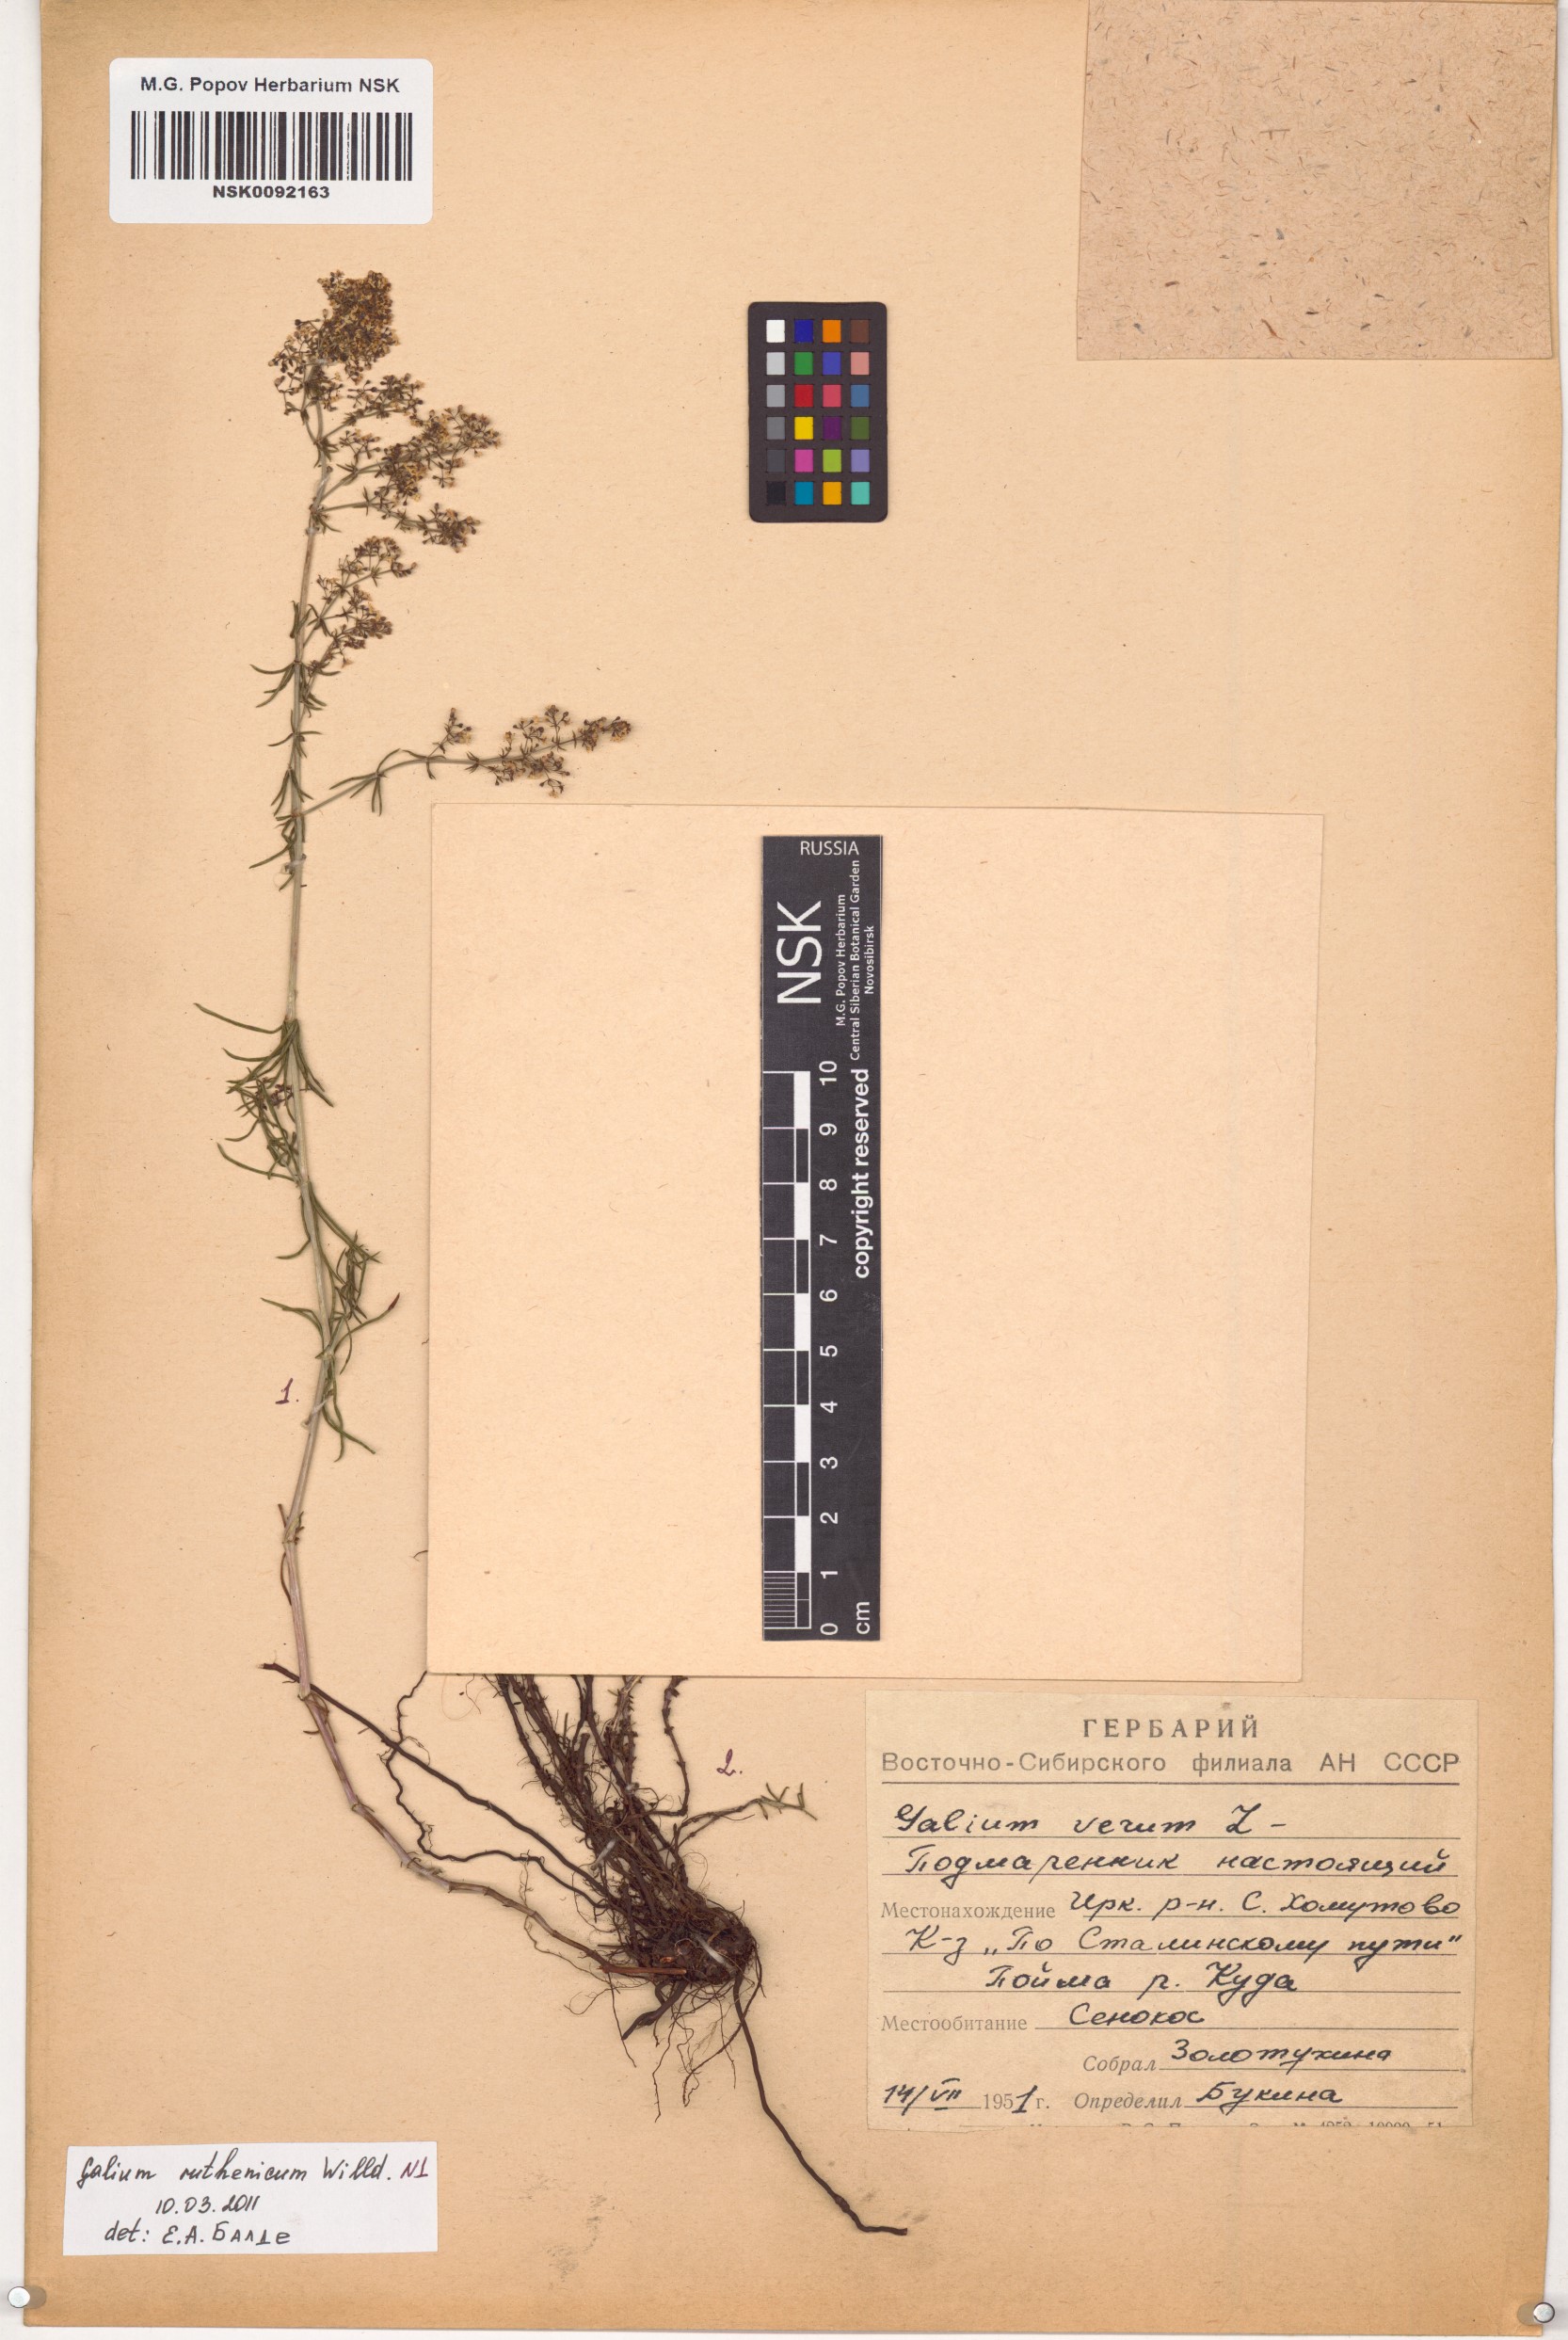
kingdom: Plantae
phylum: Tracheophyta
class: Magnoliopsida
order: Gentianales
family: Rubiaceae
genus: Galium
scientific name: Galium verum
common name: Lady's bedstraw
